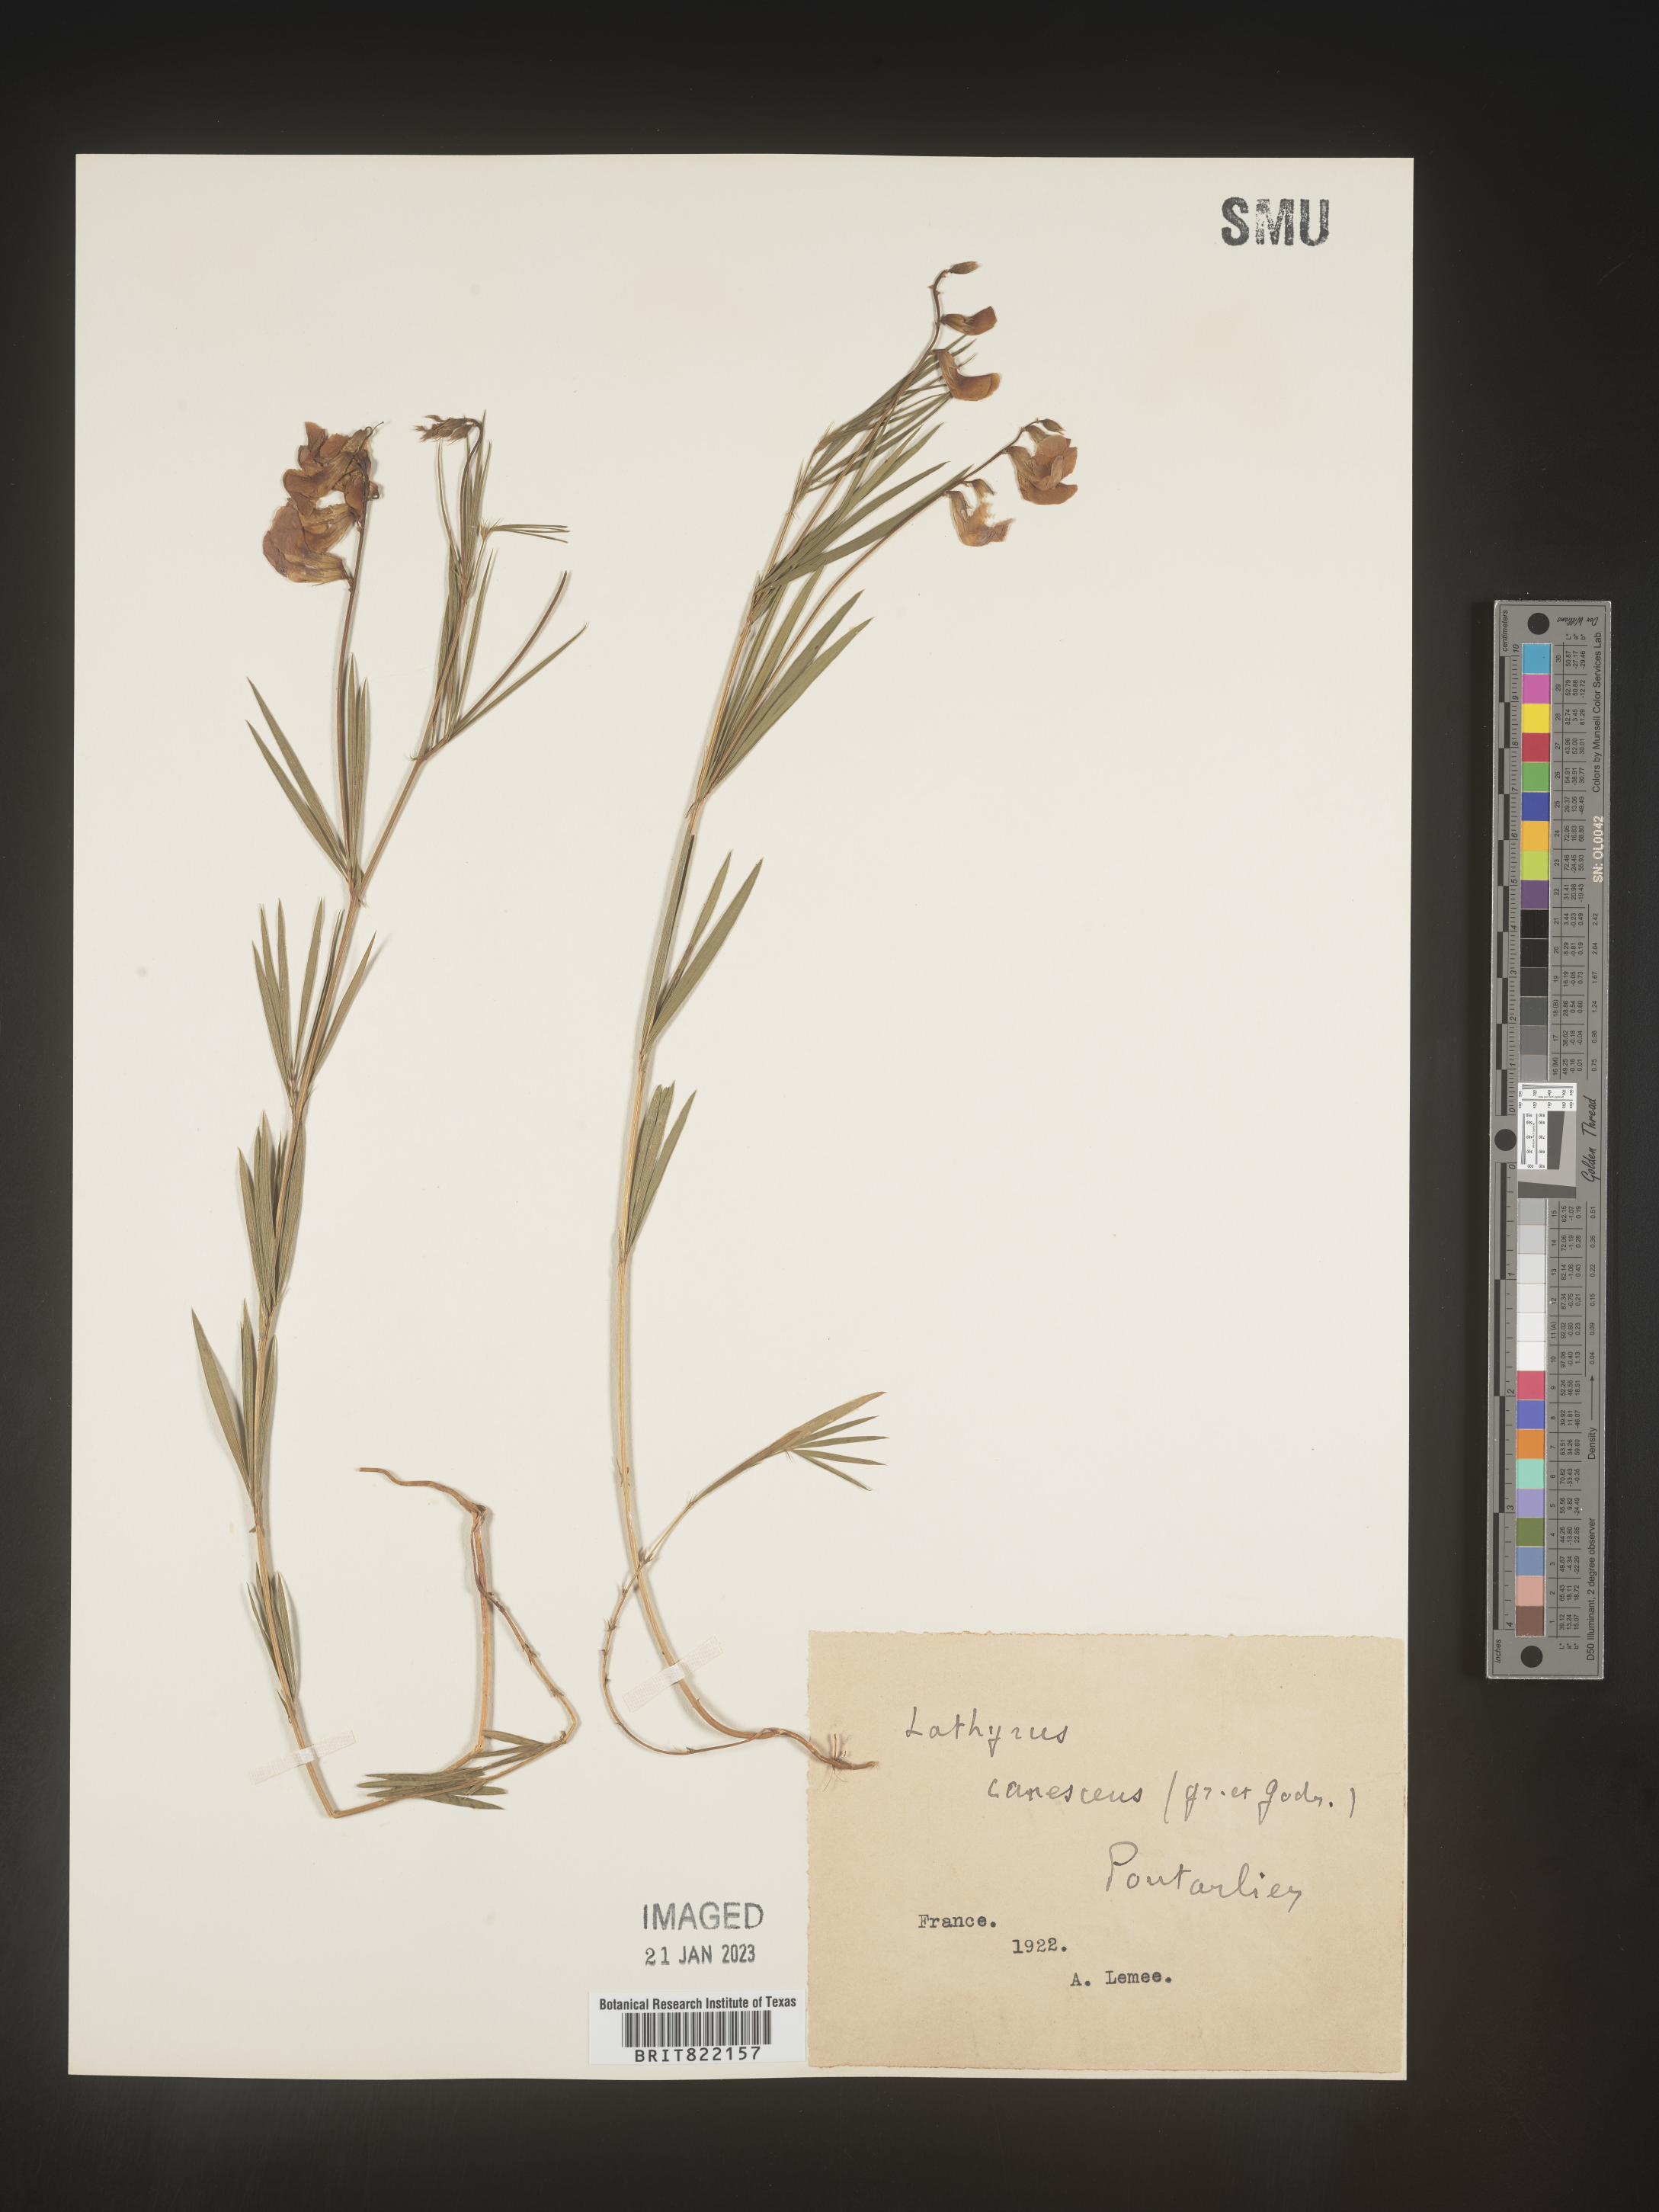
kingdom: Plantae
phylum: Tracheophyta
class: Magnoliopsida
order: Fabales
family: Fabaceae
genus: Lathyrus
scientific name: Lathyrus
